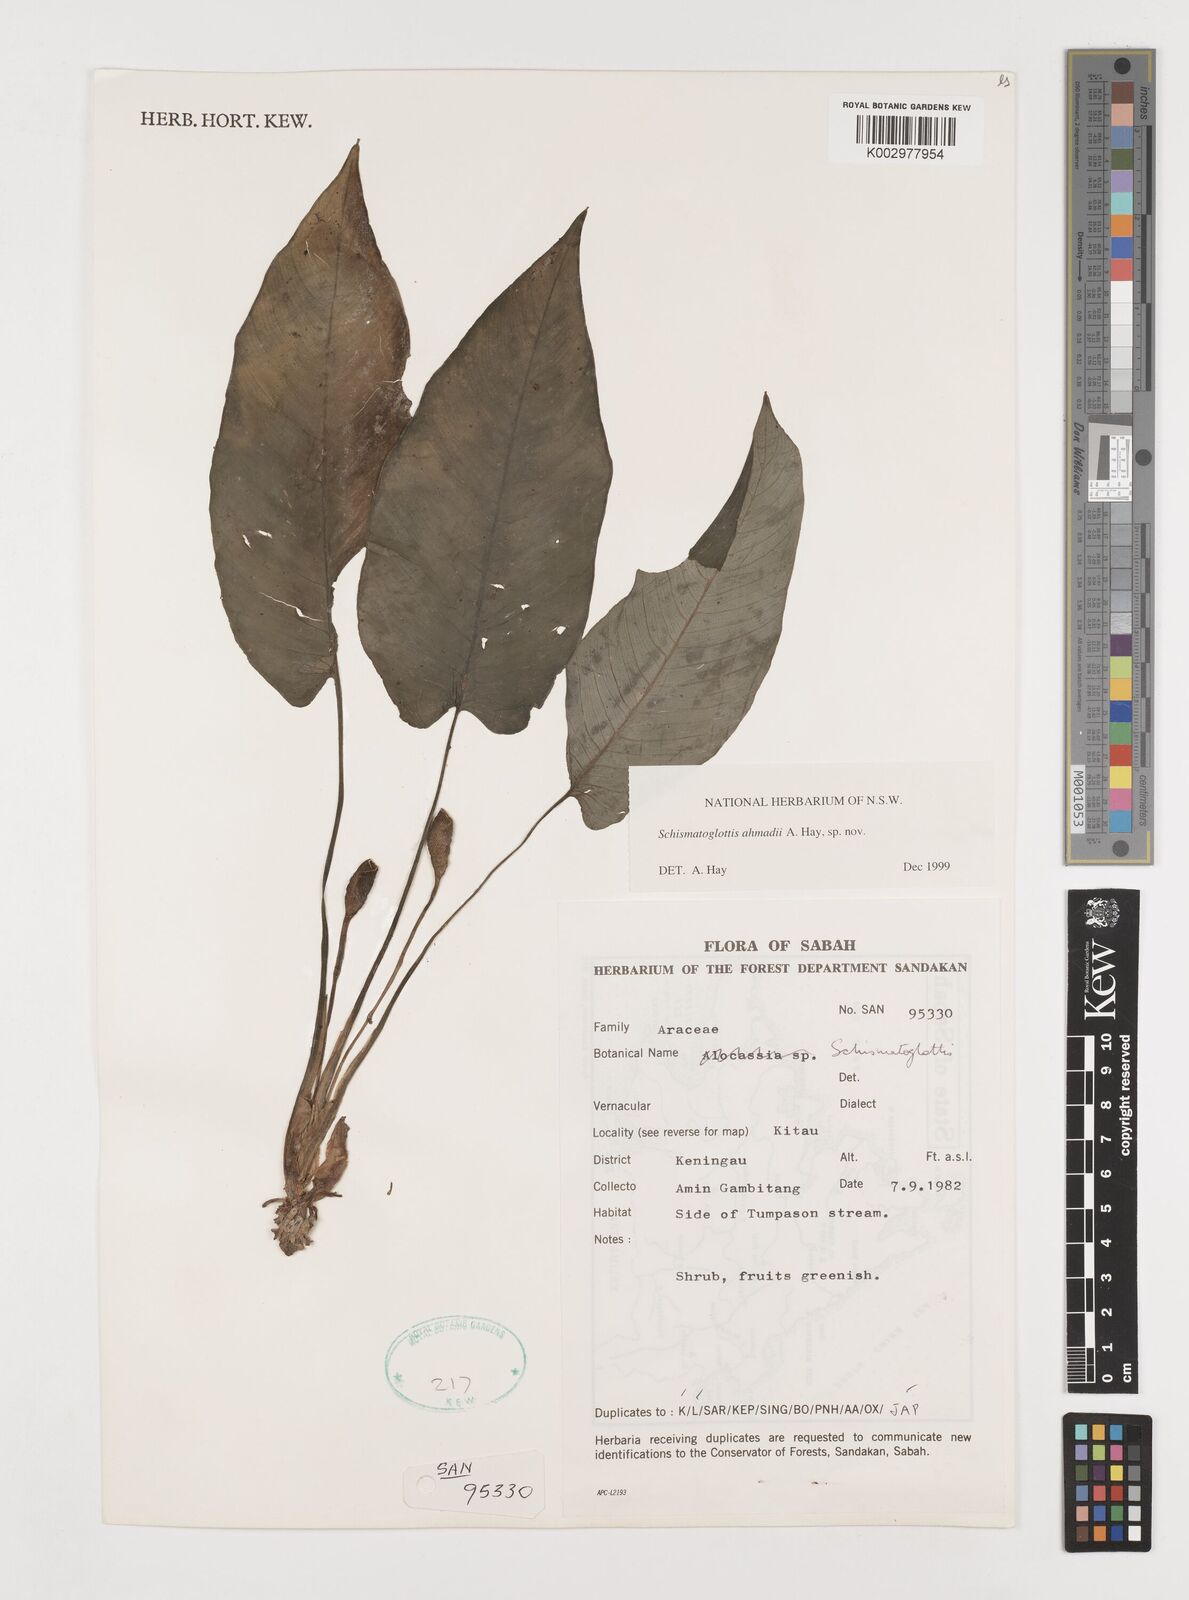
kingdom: Plantae
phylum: Tracheophyta
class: Liliopsida
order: Alismatales
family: Araceae
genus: Schismatoglottis
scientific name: Schismatoglottis ahmadii
